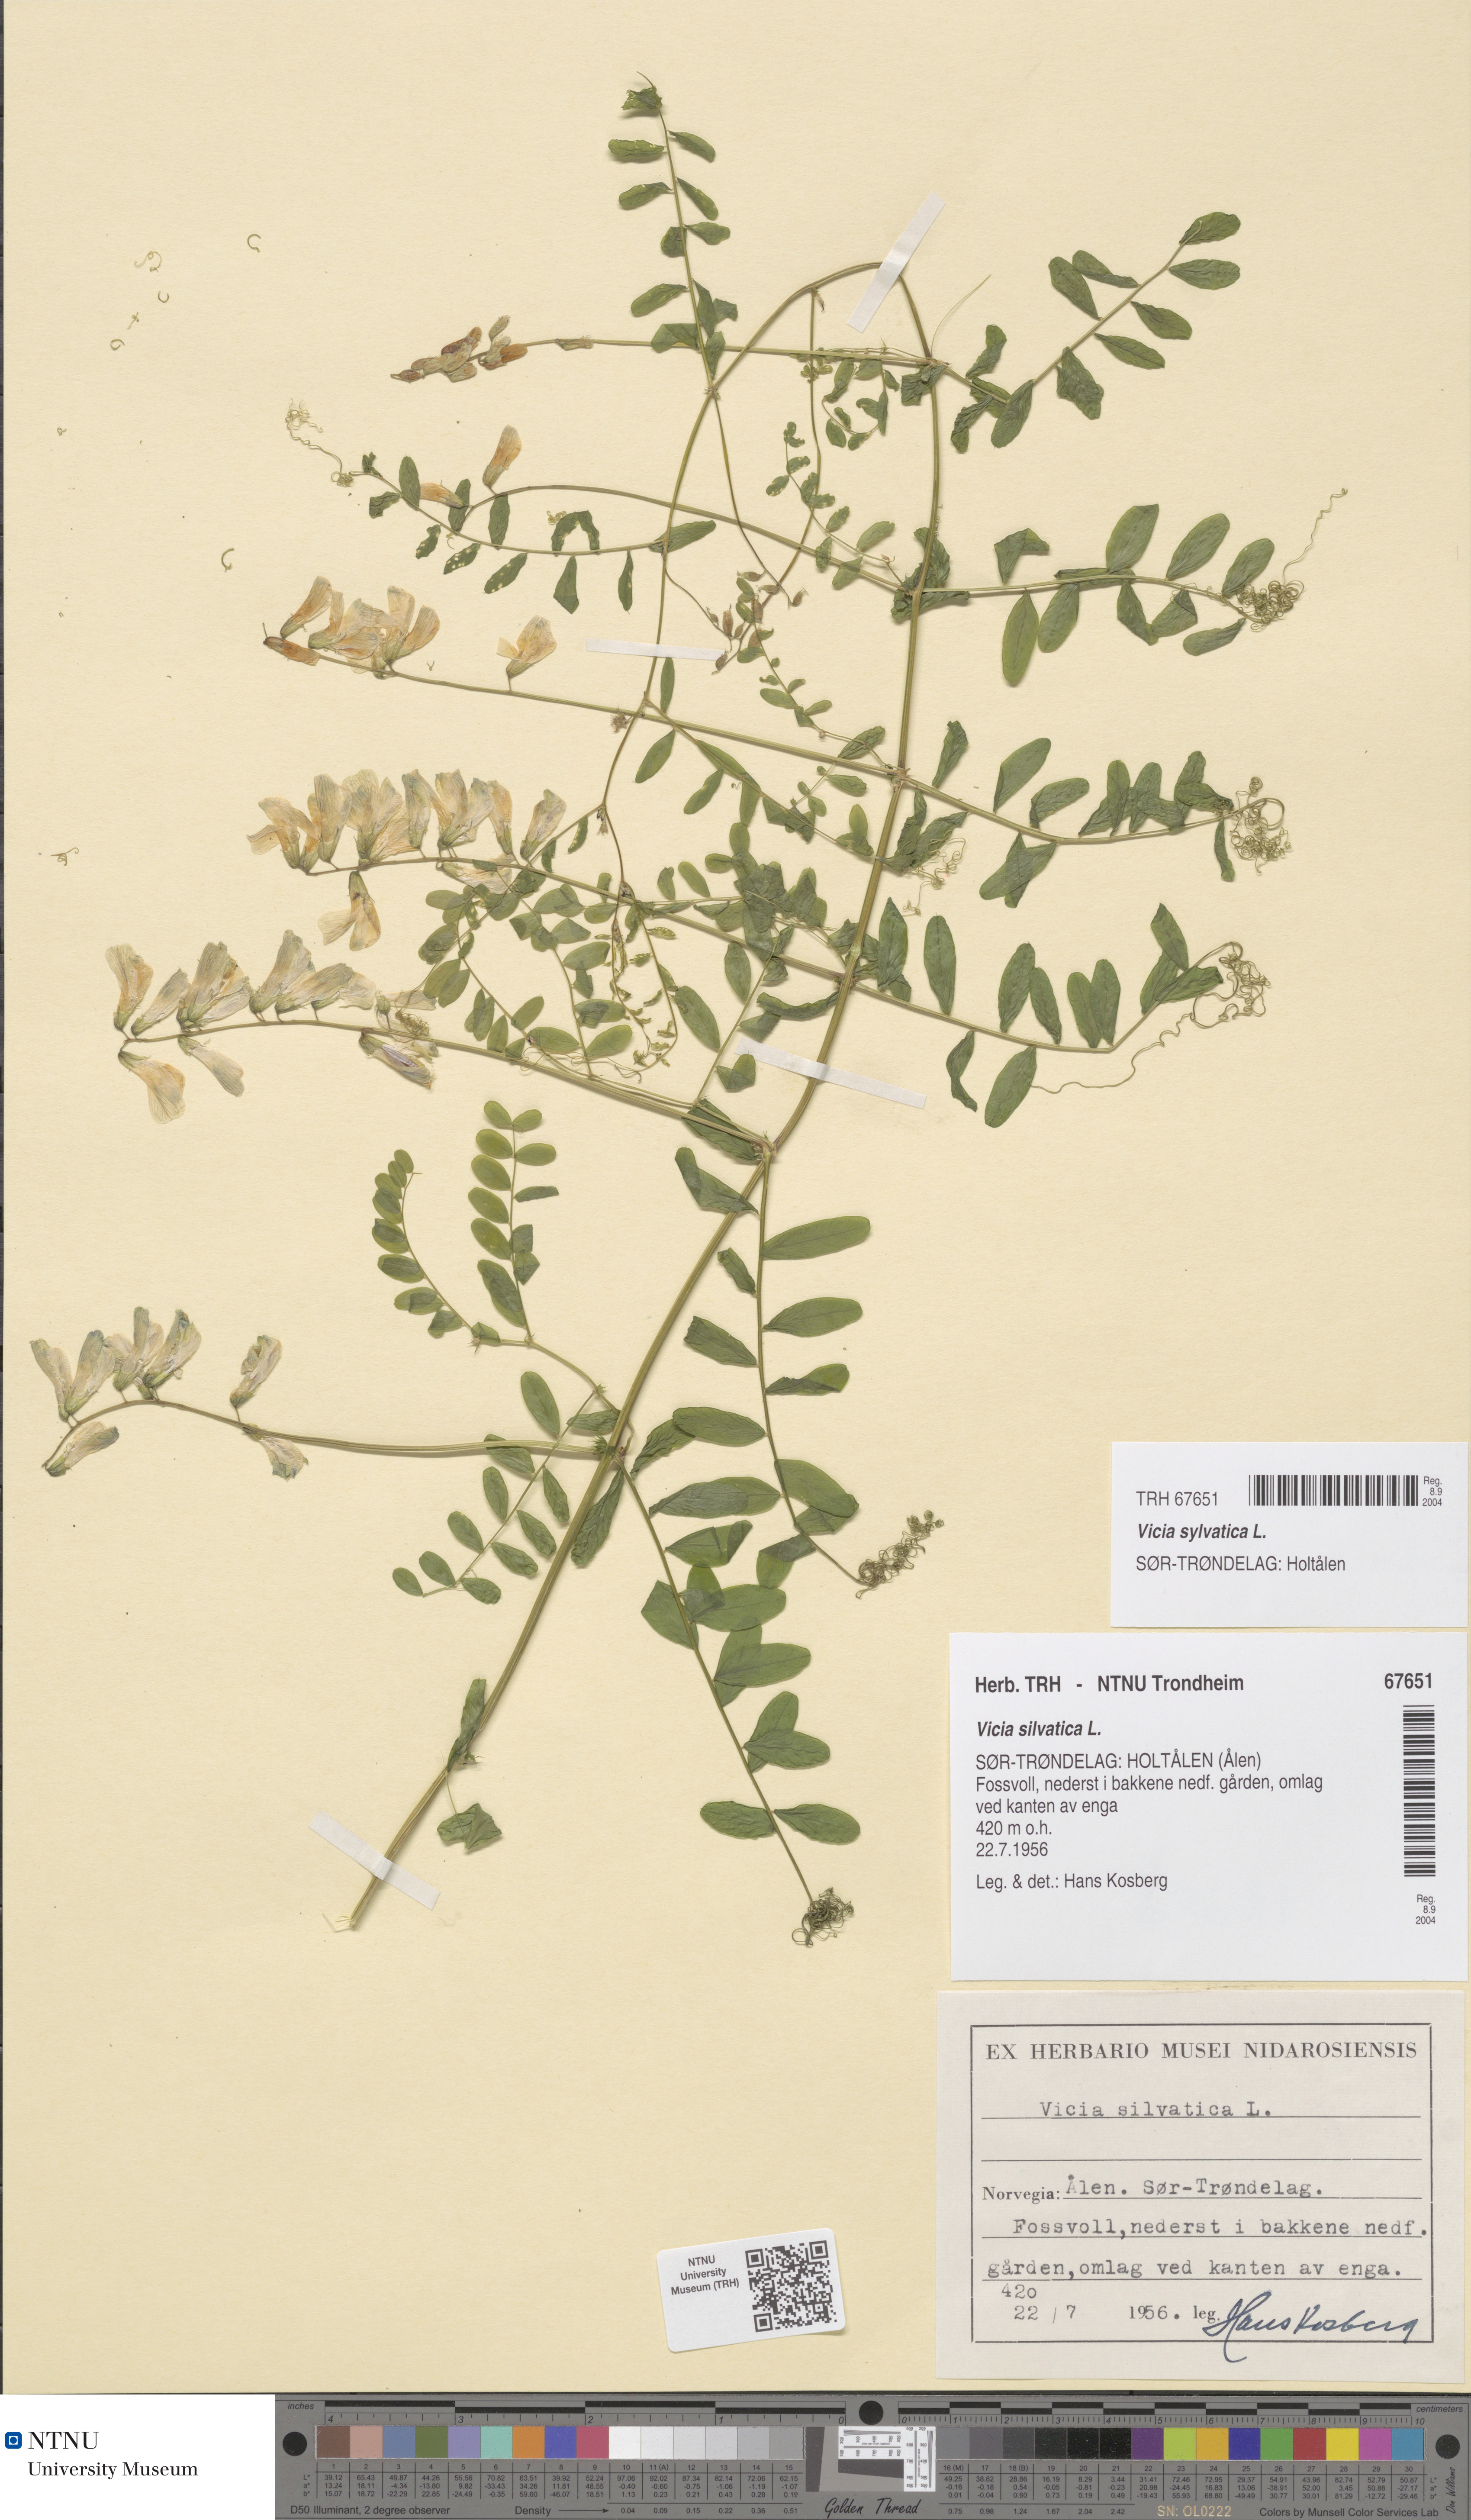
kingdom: Plantae
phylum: Tracheophyta
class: Magnoliopsida
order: Fabales
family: Fabaceae
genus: Vicia
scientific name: Vicia sylvatica
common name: Wood vetch
